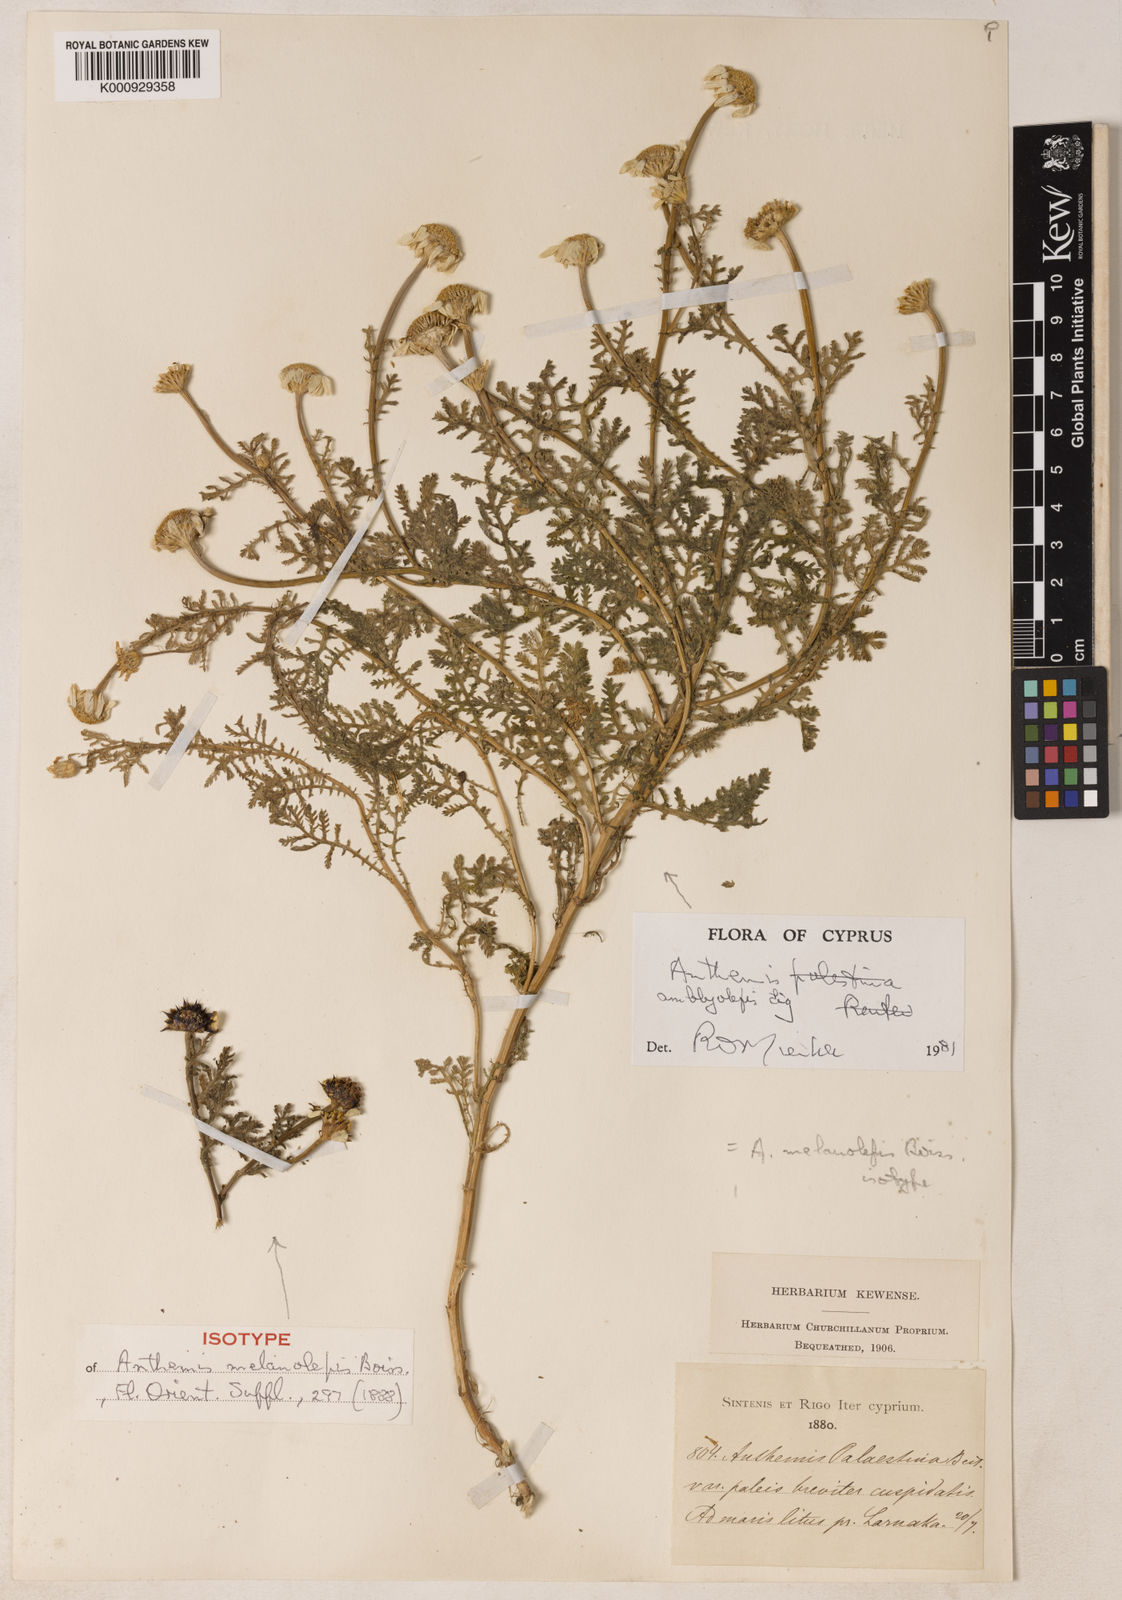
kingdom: Plantae
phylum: Tracheophyta
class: Magnoliopsida
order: Asterales
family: Asteraceae
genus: Cota
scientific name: Cota palaestina
